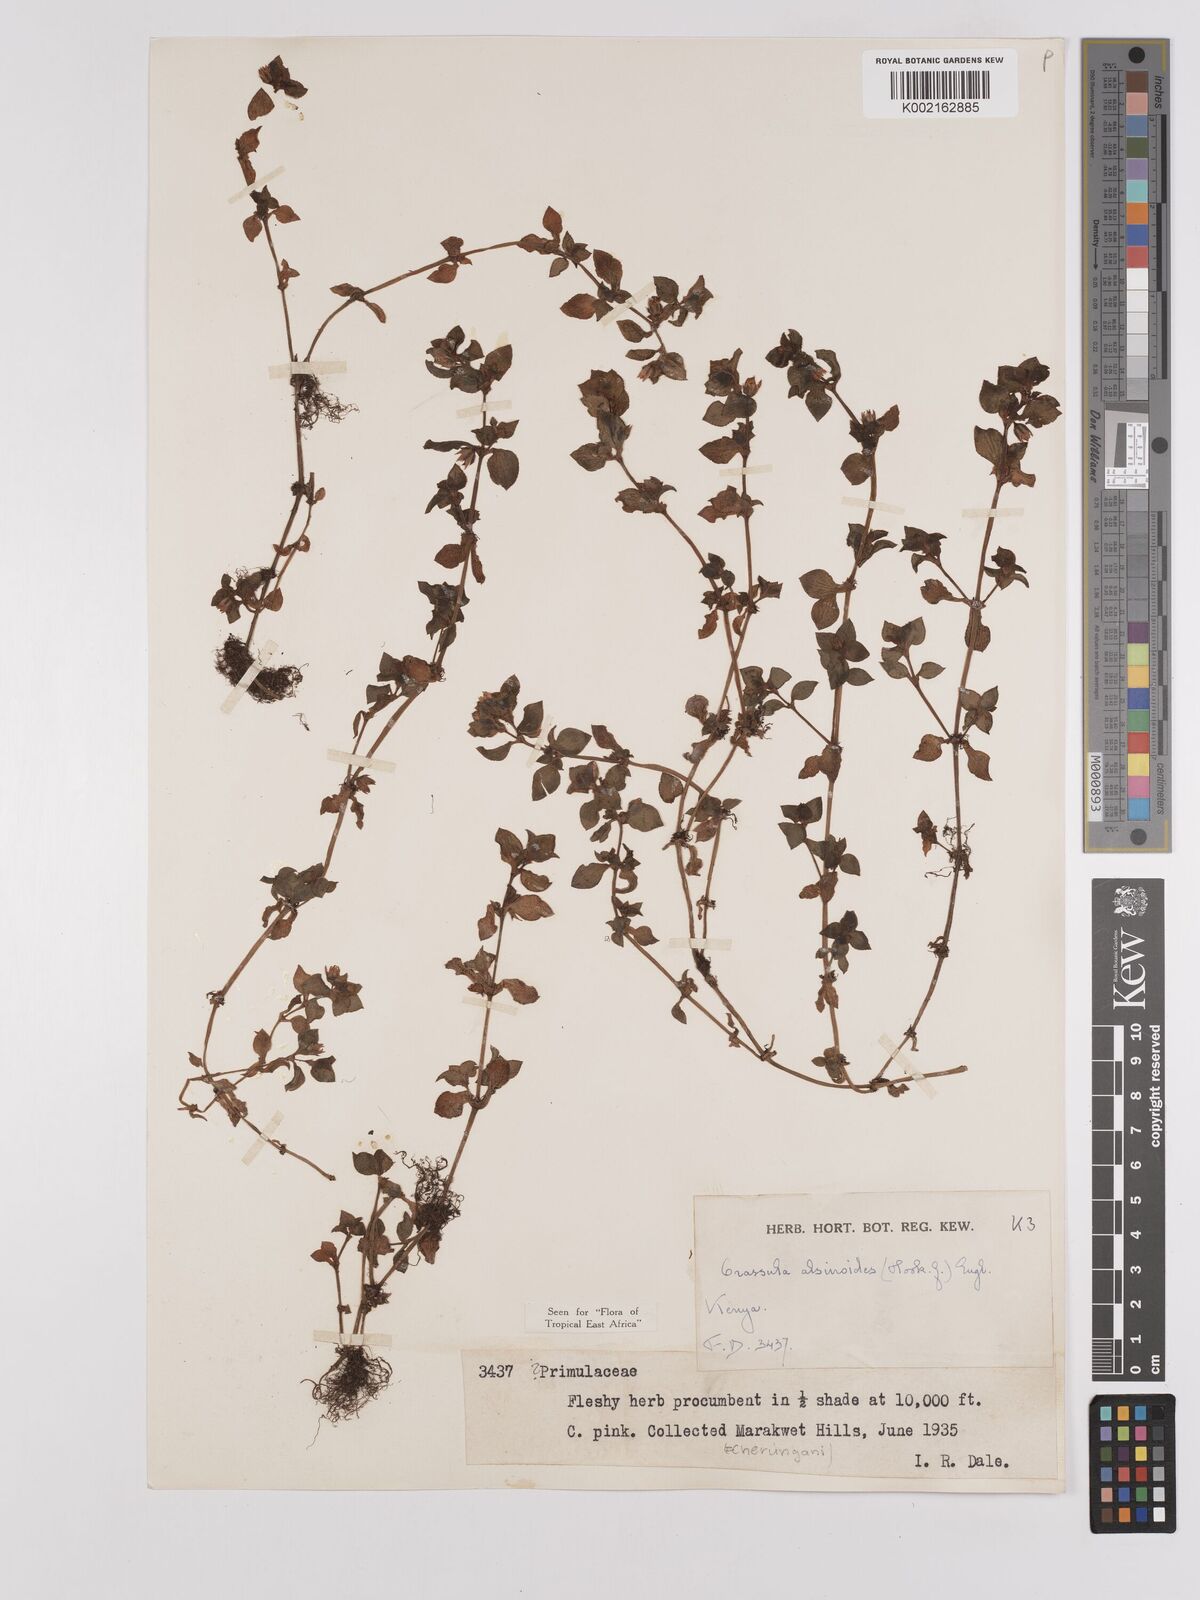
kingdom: Plantae
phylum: Tracheophyta
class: Magnoliopsida
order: Saxifragales
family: Crassulaceae
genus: Crassula
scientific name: Crassula alsinoides
